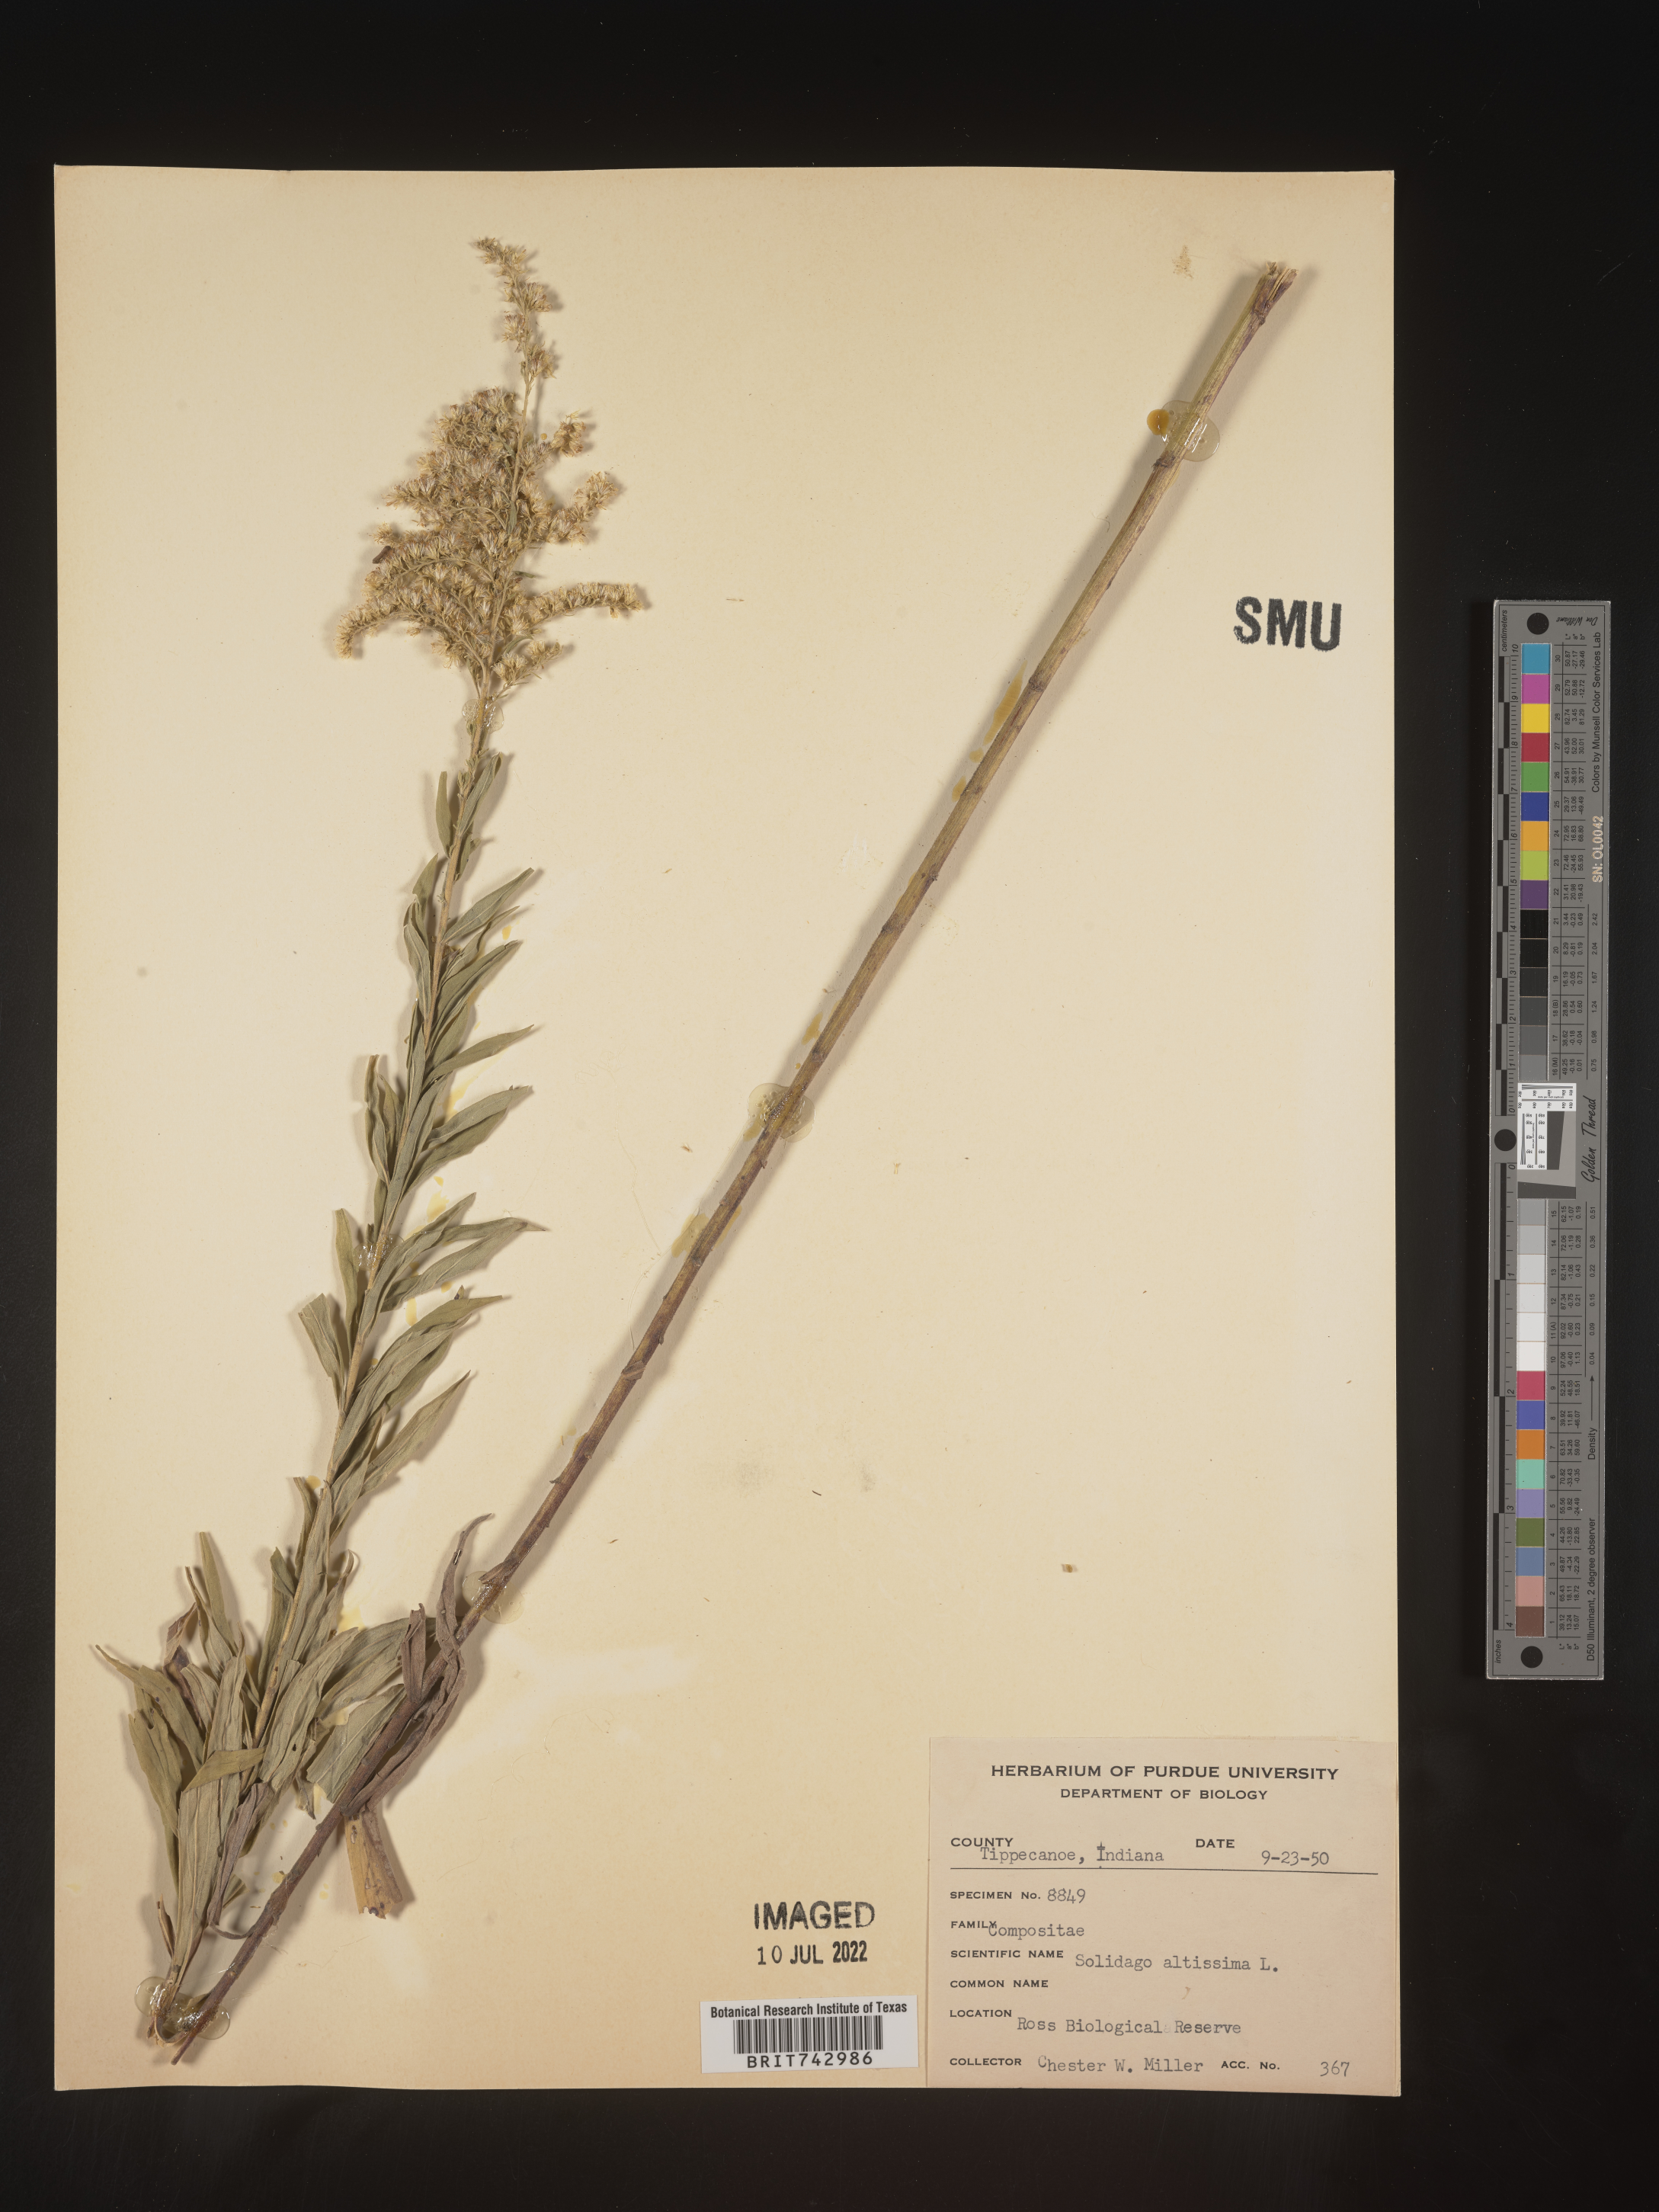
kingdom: Plantae
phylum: Tracheophyta
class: Magnoliopsida
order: Asterales
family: Asteraceae
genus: Solidago
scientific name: Solidago altissima
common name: Late goldenrod
